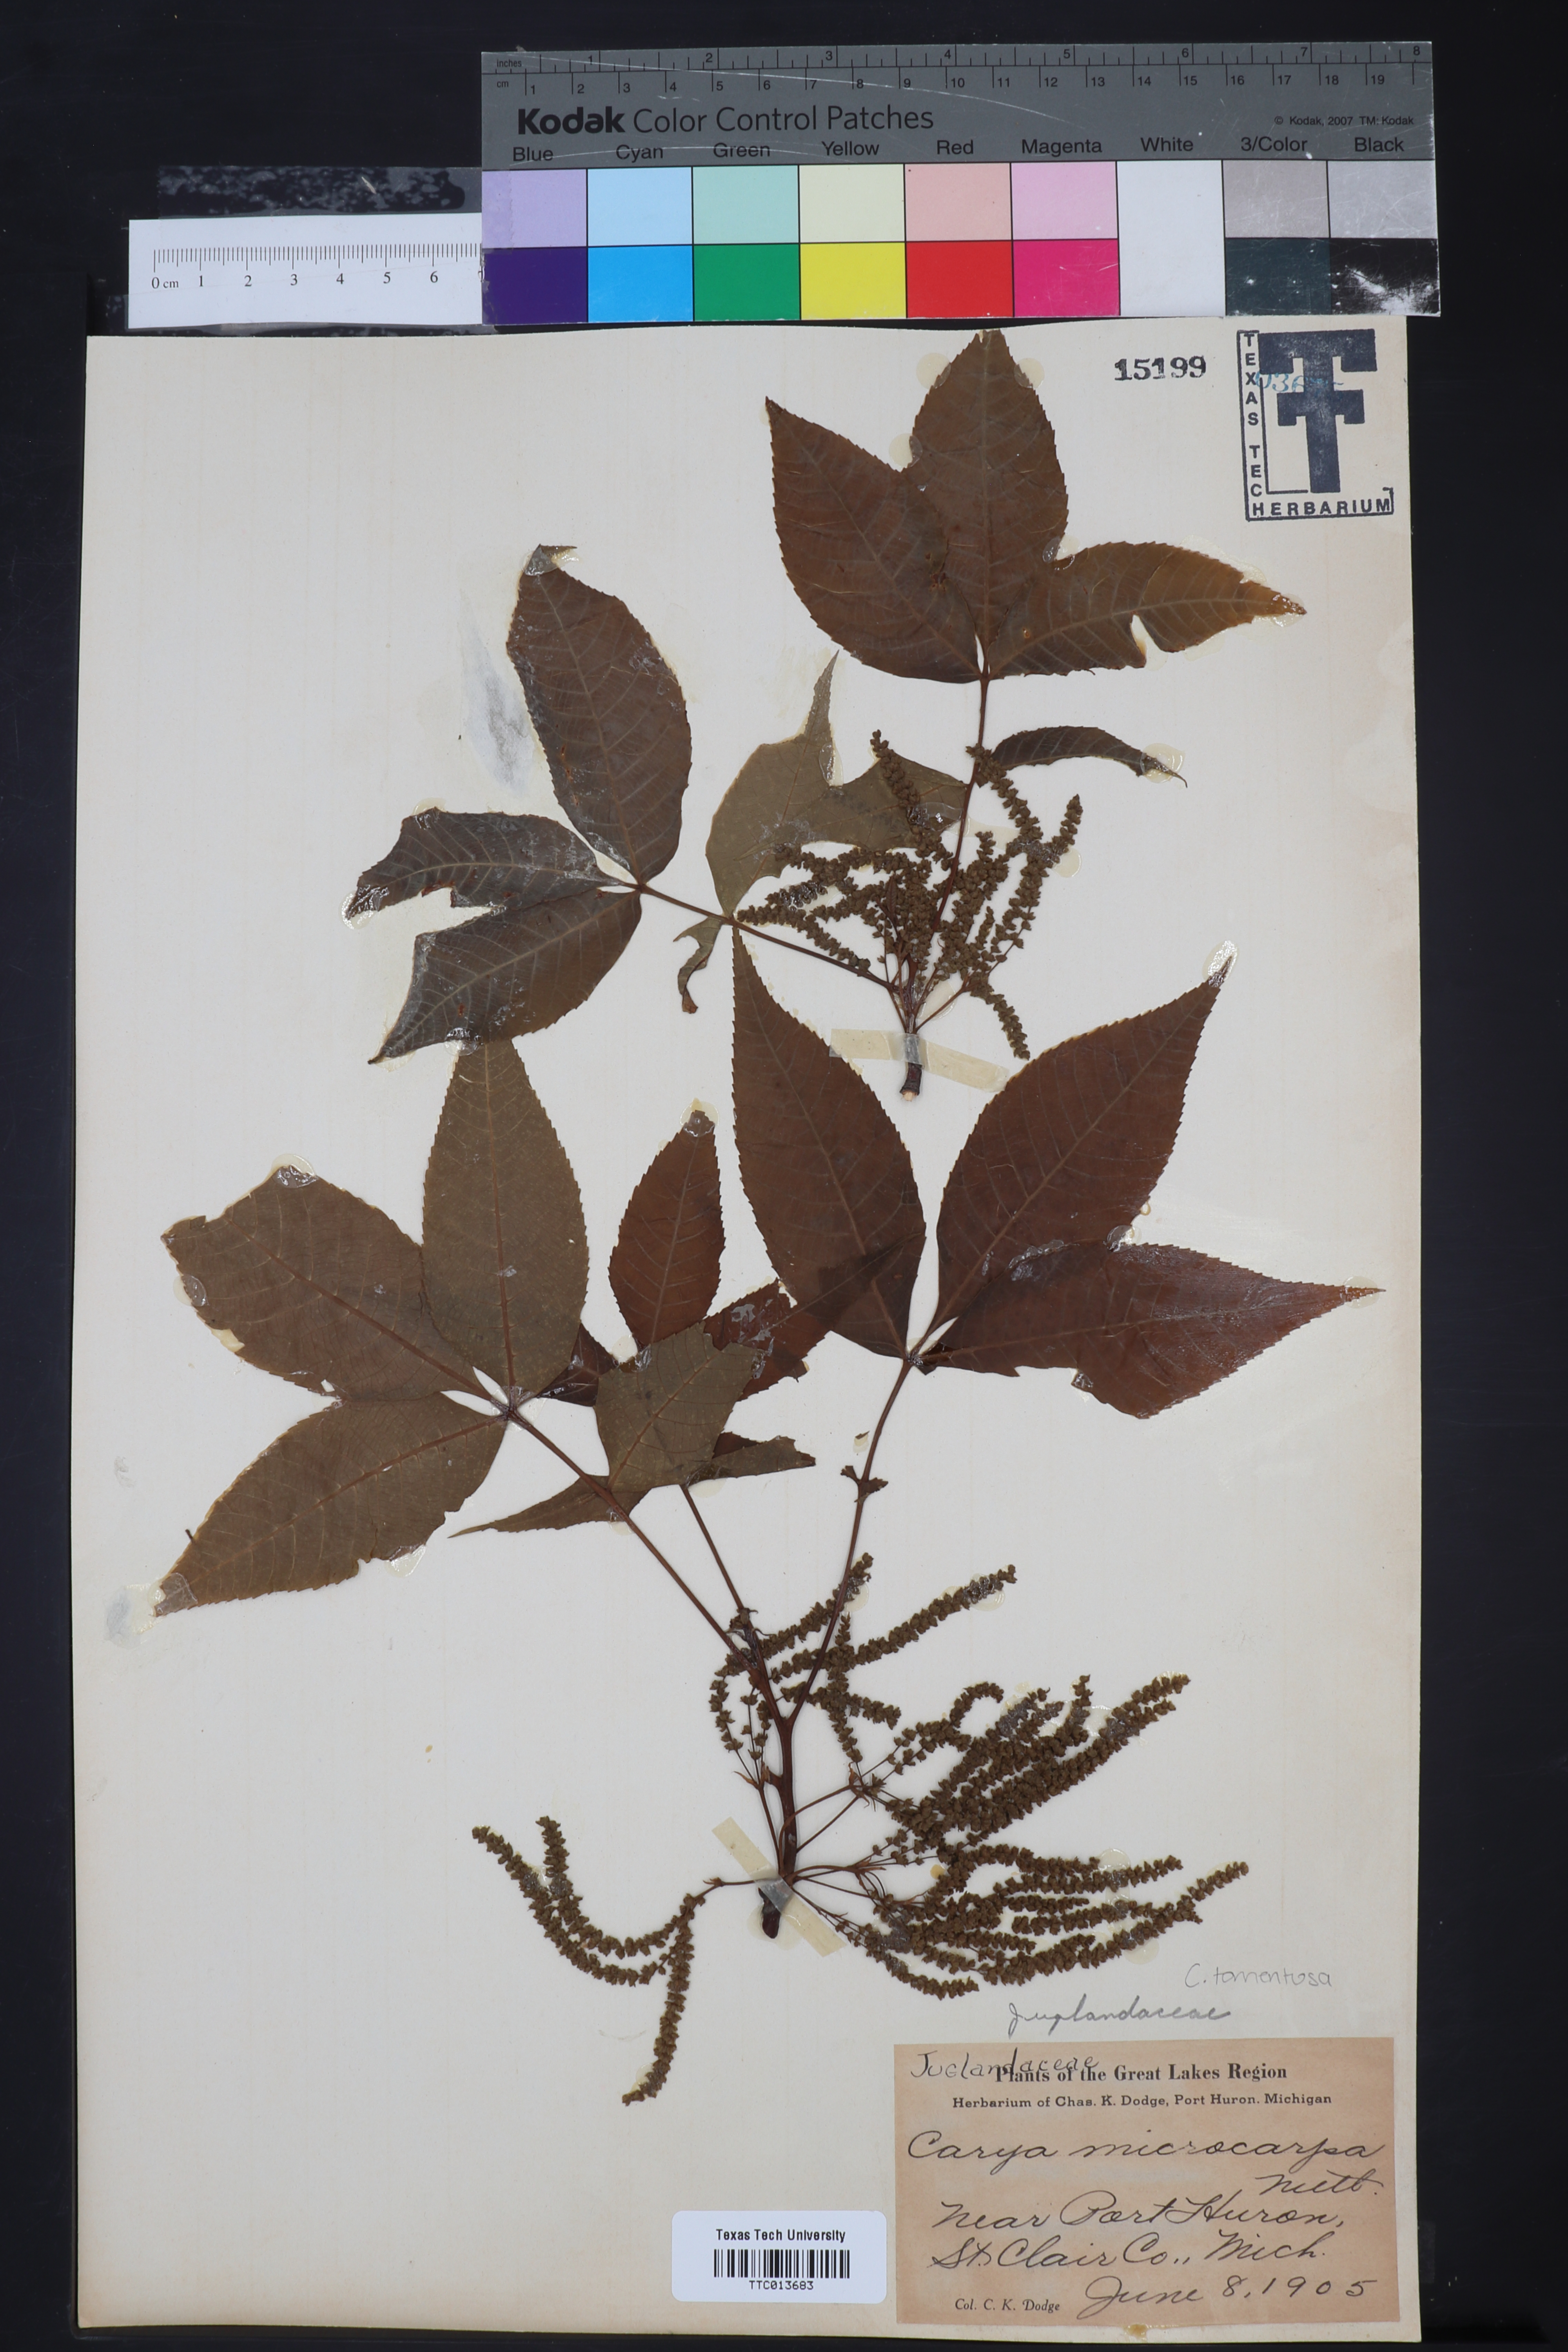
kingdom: Plantae
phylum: Tracheophyta
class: Magnoliopsida
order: Fagales
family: Juglandaceae
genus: Carya
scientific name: Carya ovata
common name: Shagbark hickory
